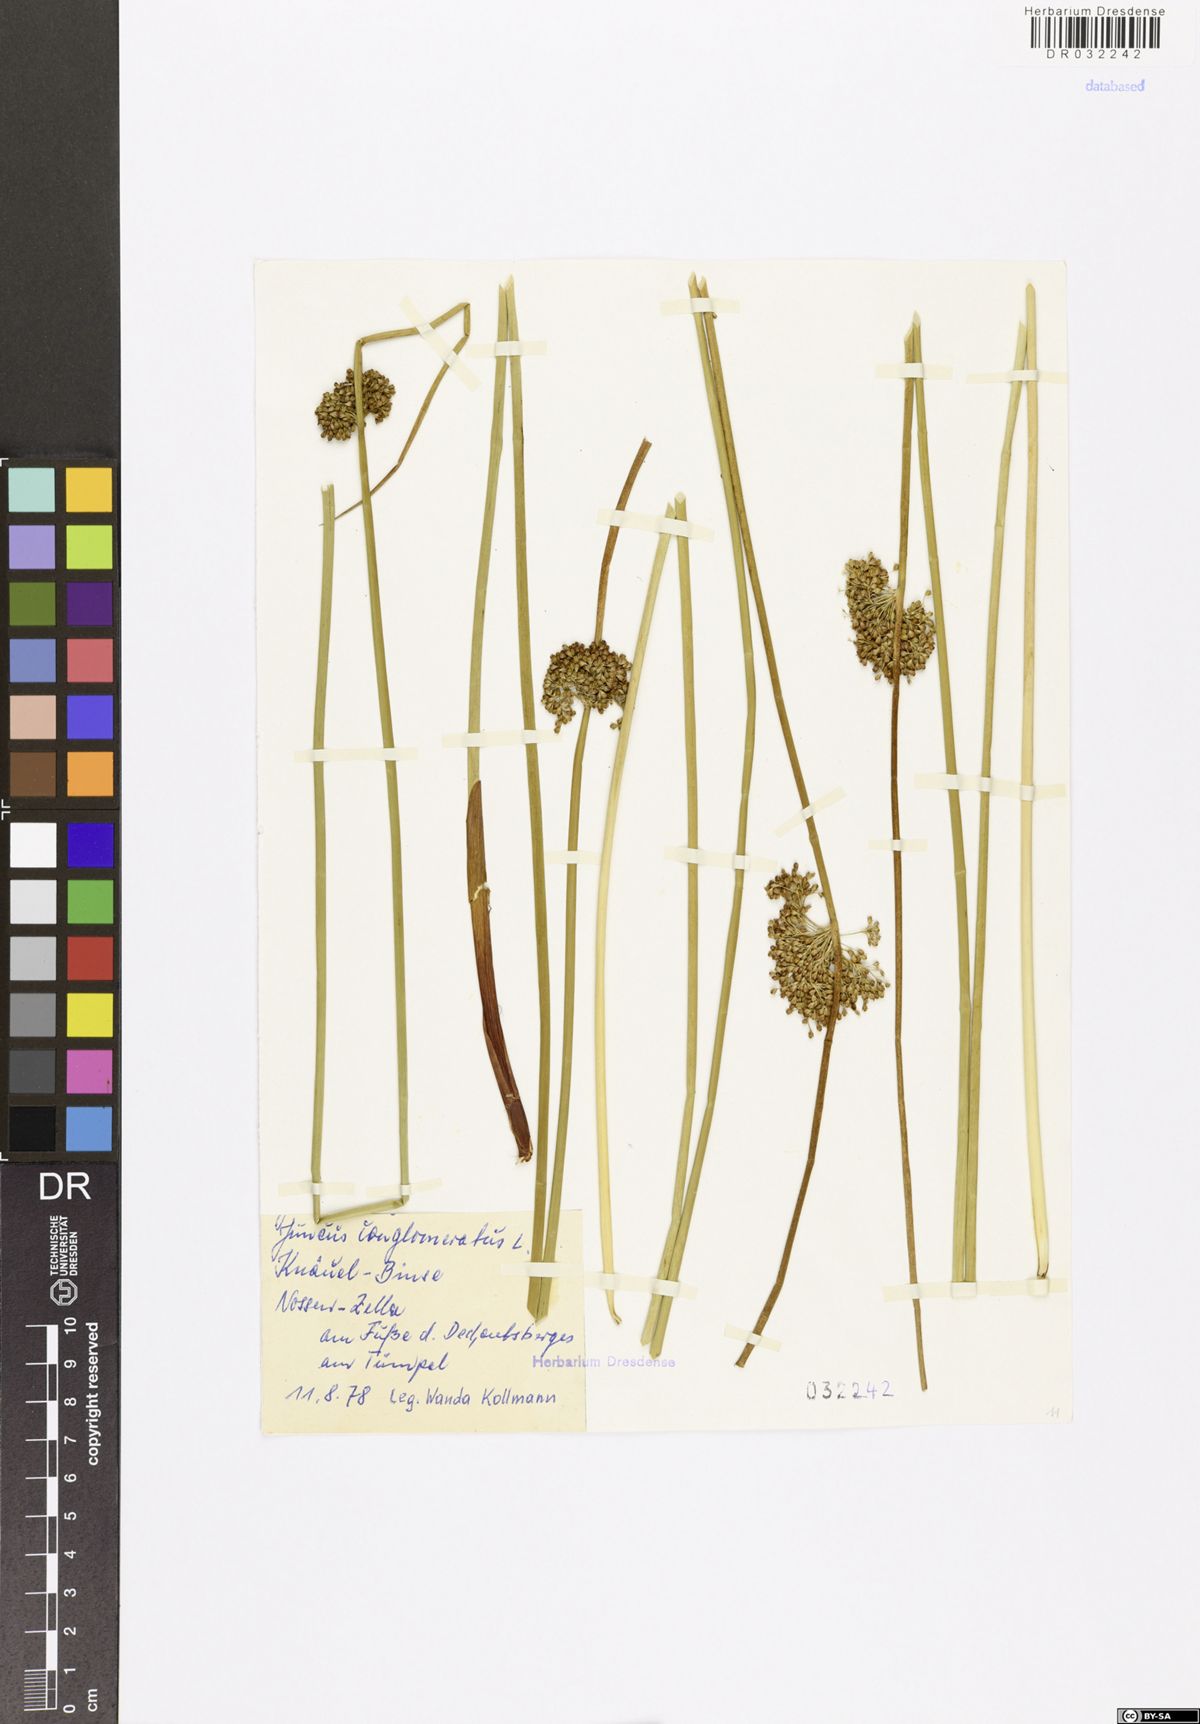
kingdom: Plantae
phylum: Tracheophyta
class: Liliopsida
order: Poales
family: Juncaceae
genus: Juncus
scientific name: Juncus conglomeratus
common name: Compact rush
